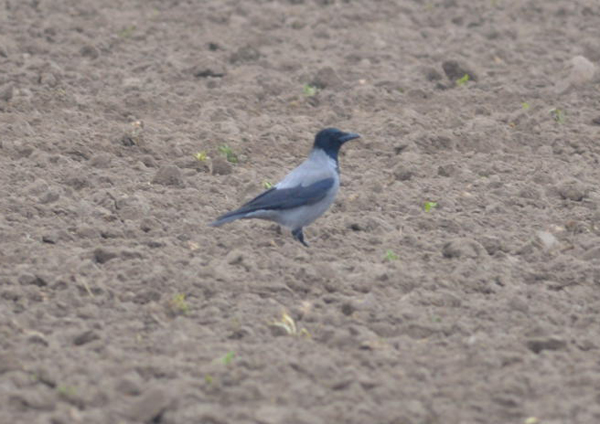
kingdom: Animalia
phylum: Chordata
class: Aves
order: Passeriformes
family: Corvidae
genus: Corvus
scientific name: Corvus cornix
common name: Hooded crow
